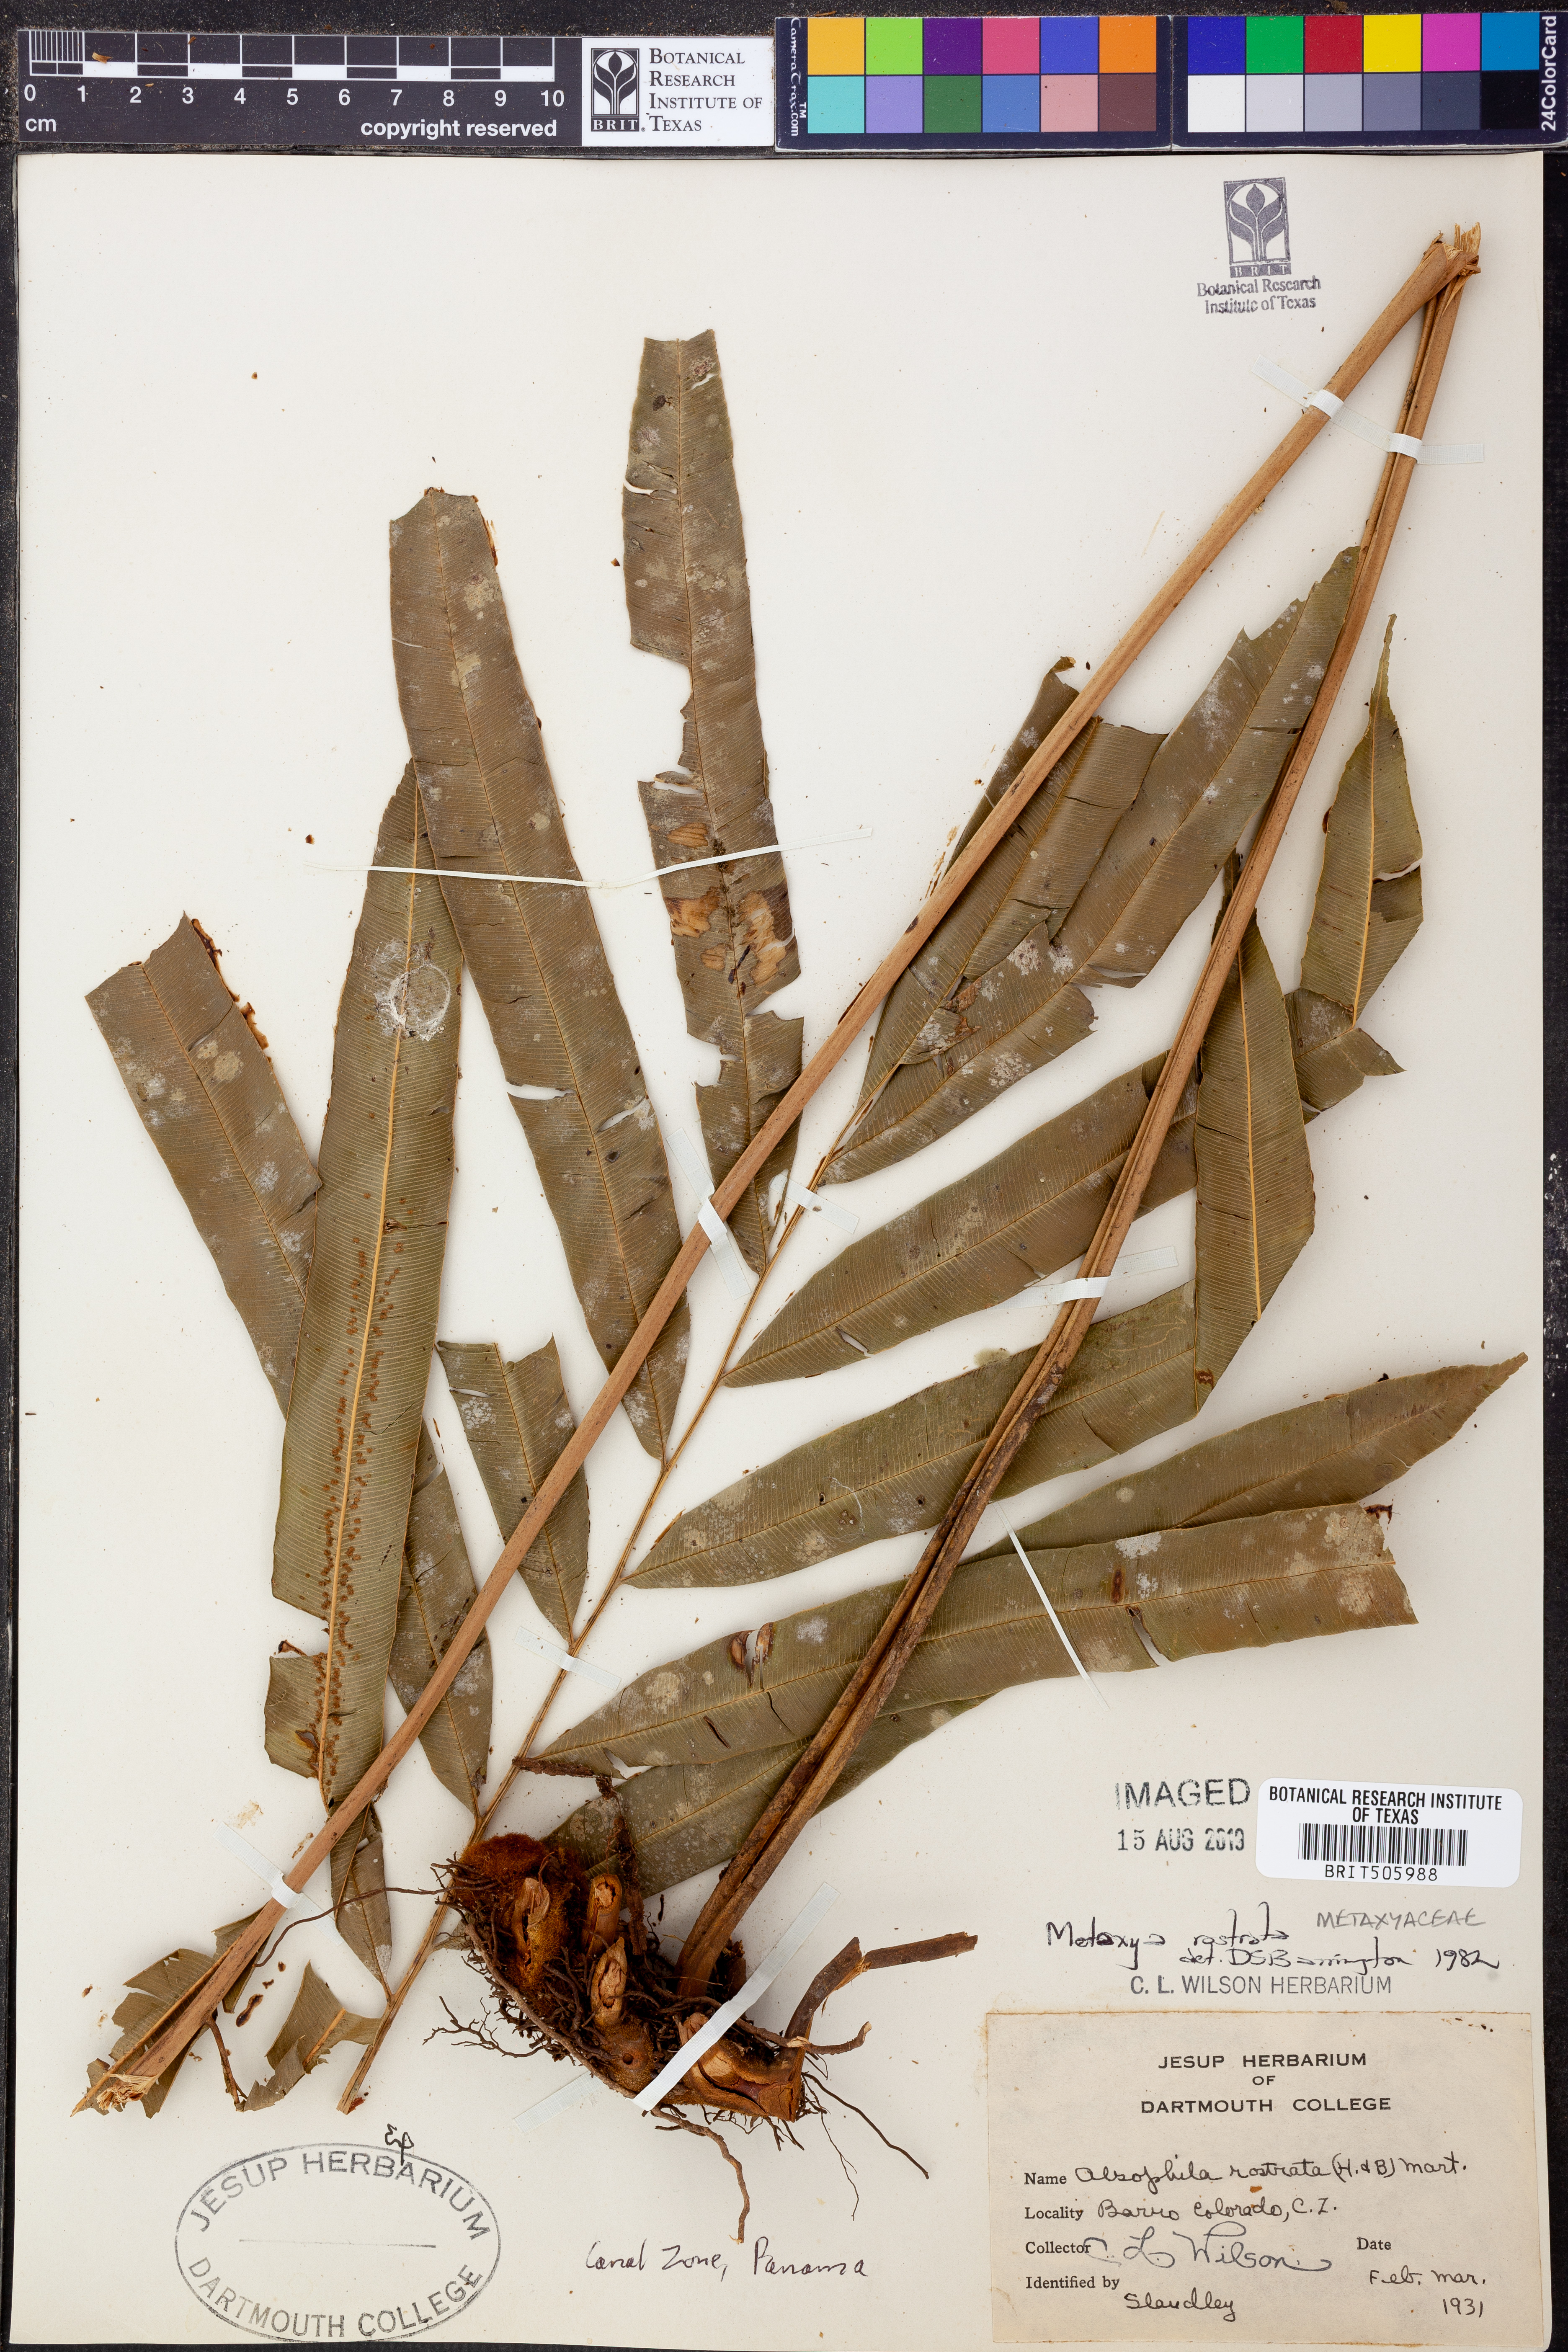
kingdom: Plantae
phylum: Tracheophyta
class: Polypodiopsida
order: Cyatheales
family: Metaxyaceae
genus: Metaxya
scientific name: Metaxya rostrata
